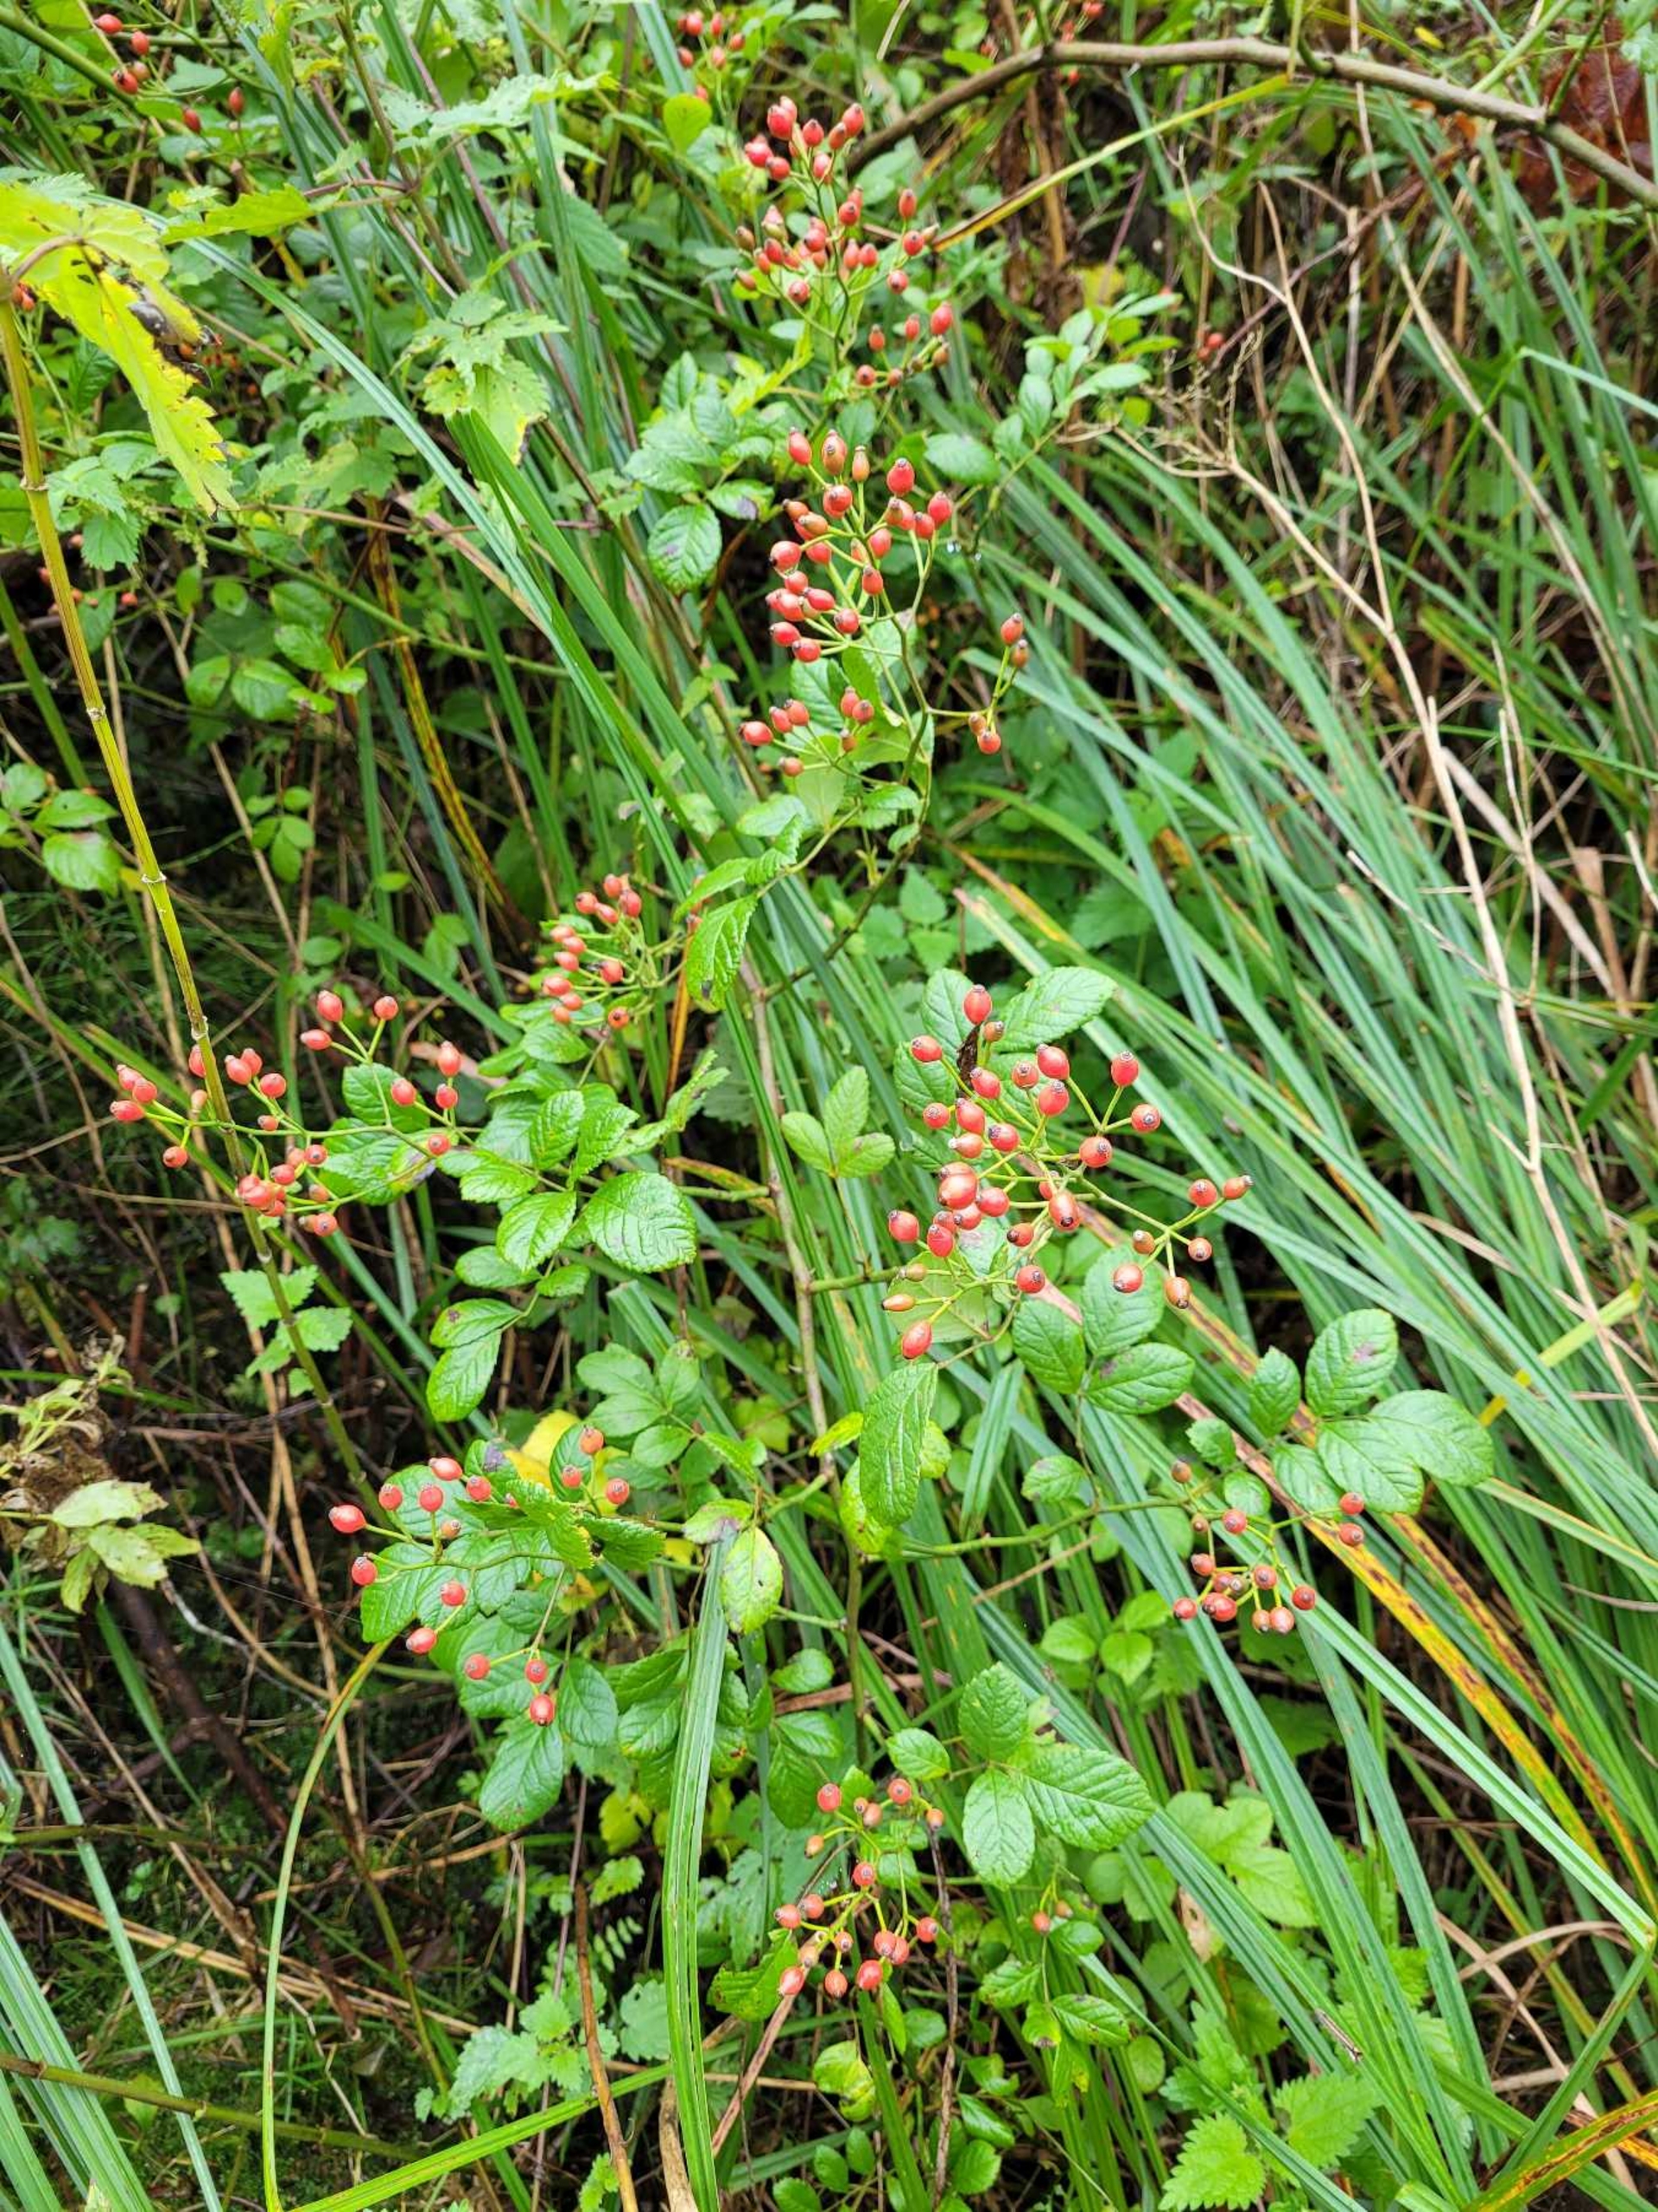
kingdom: Plantae
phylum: Tracheophyta
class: Magnoliopsida
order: Rosales
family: Rosaceae
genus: Rosa
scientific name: Rosa multiflora
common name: Mangeblomstret rose
